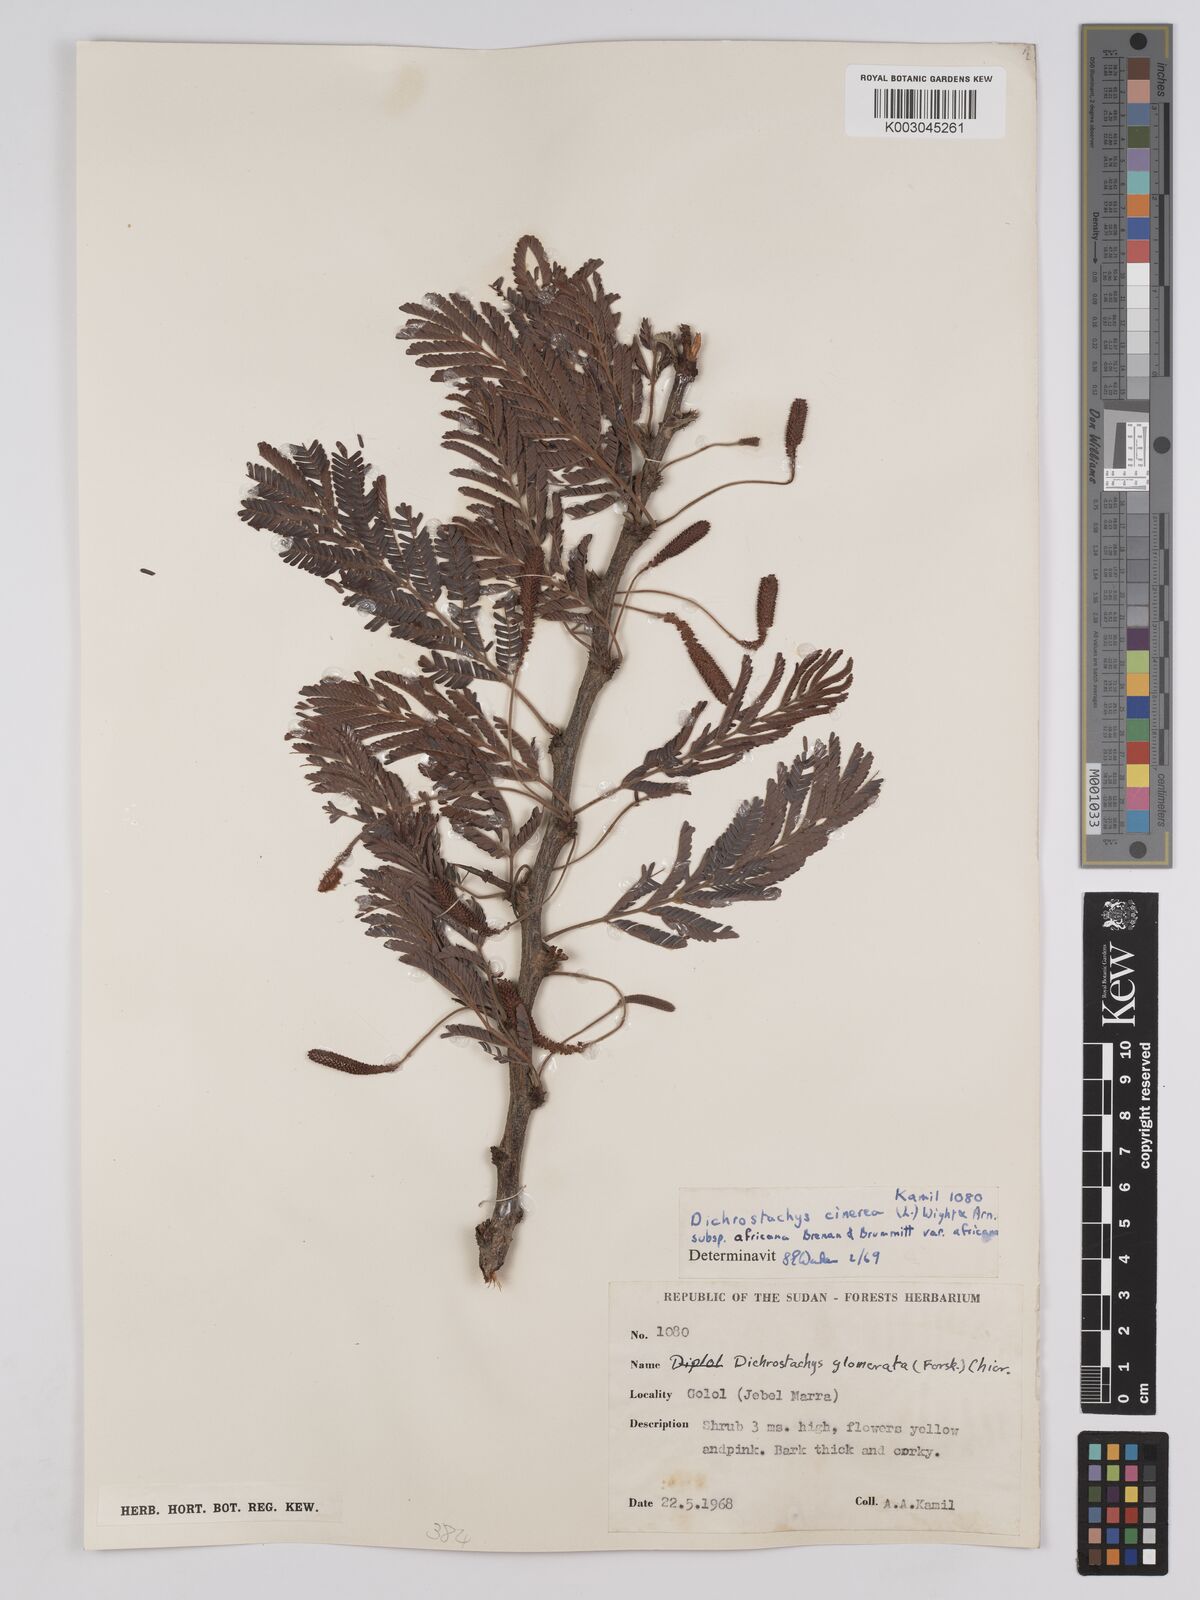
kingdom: Plantae
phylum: Tracheophyta
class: Magnoliopsida
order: Fabales
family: Fabaceae
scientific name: Fabaceae
